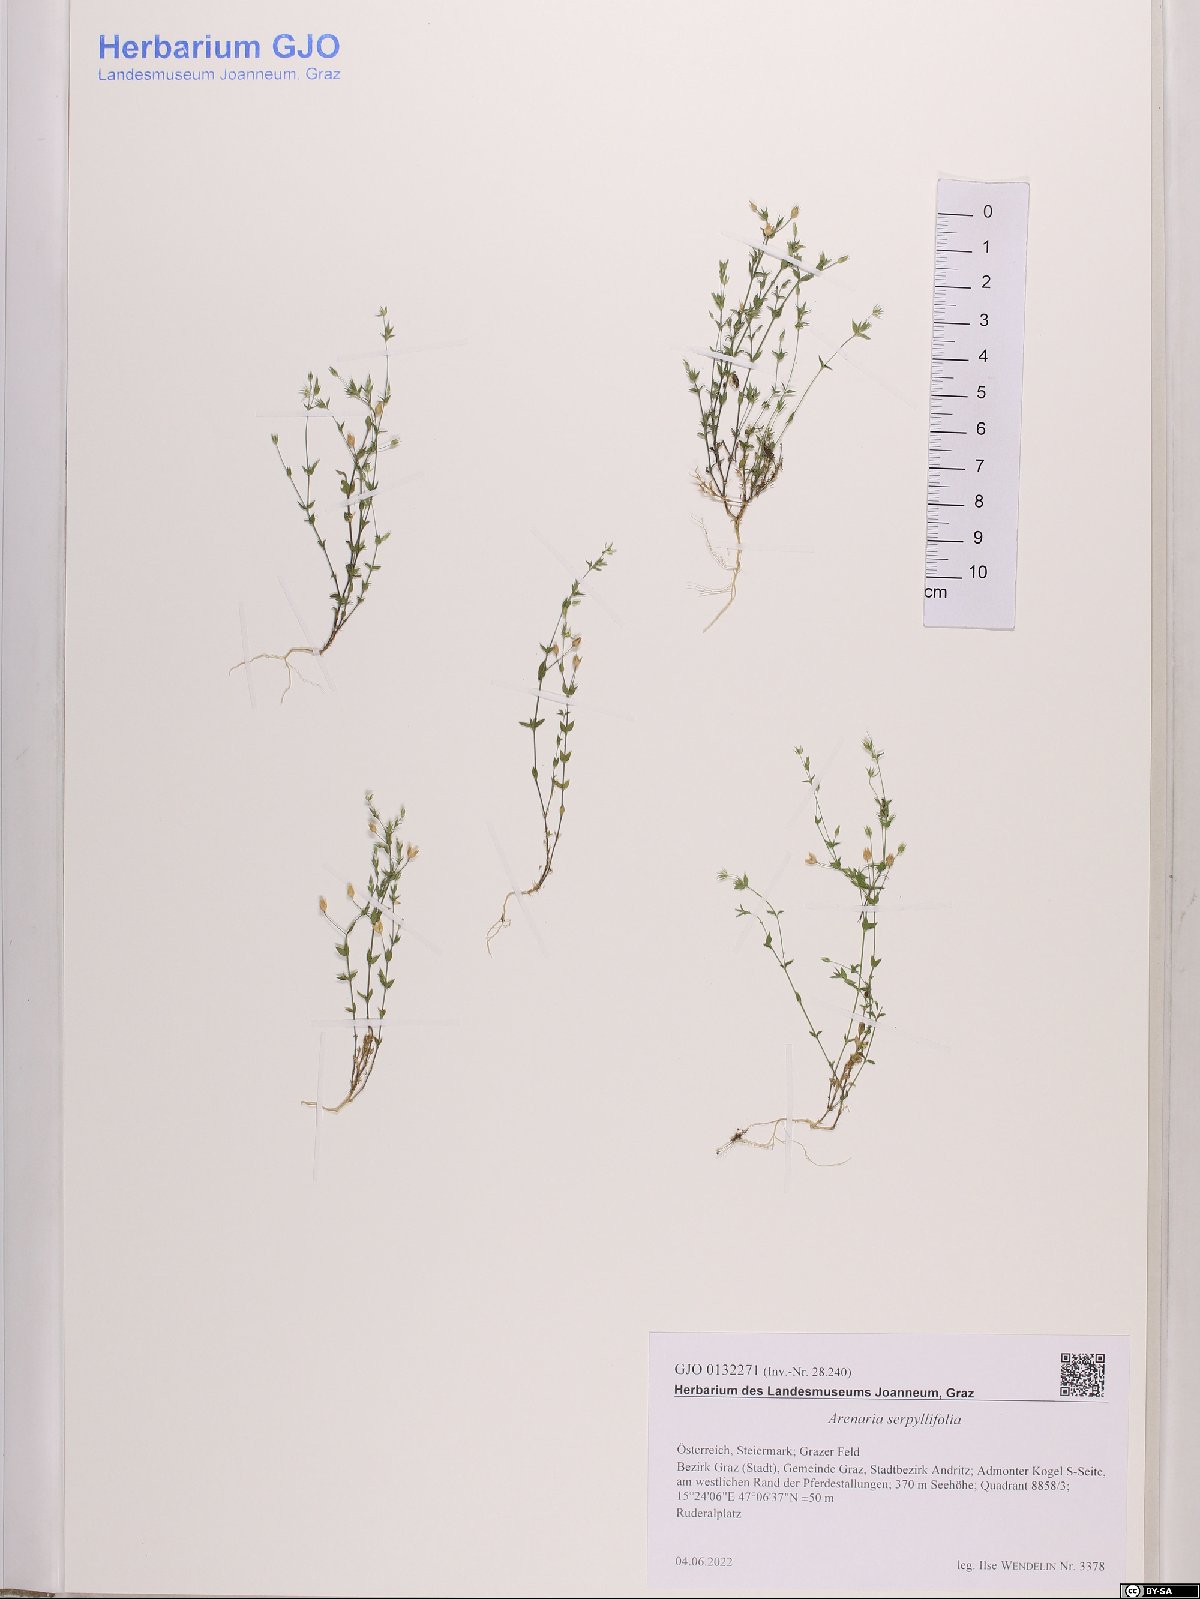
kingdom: Plantae
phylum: Tracheophyta
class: Magnoliopsida
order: Caryophyllales
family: Caryophyllaceae
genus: Arenaria
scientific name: Arenaria serpyllifolia
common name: Thyme-leaved sandwort
